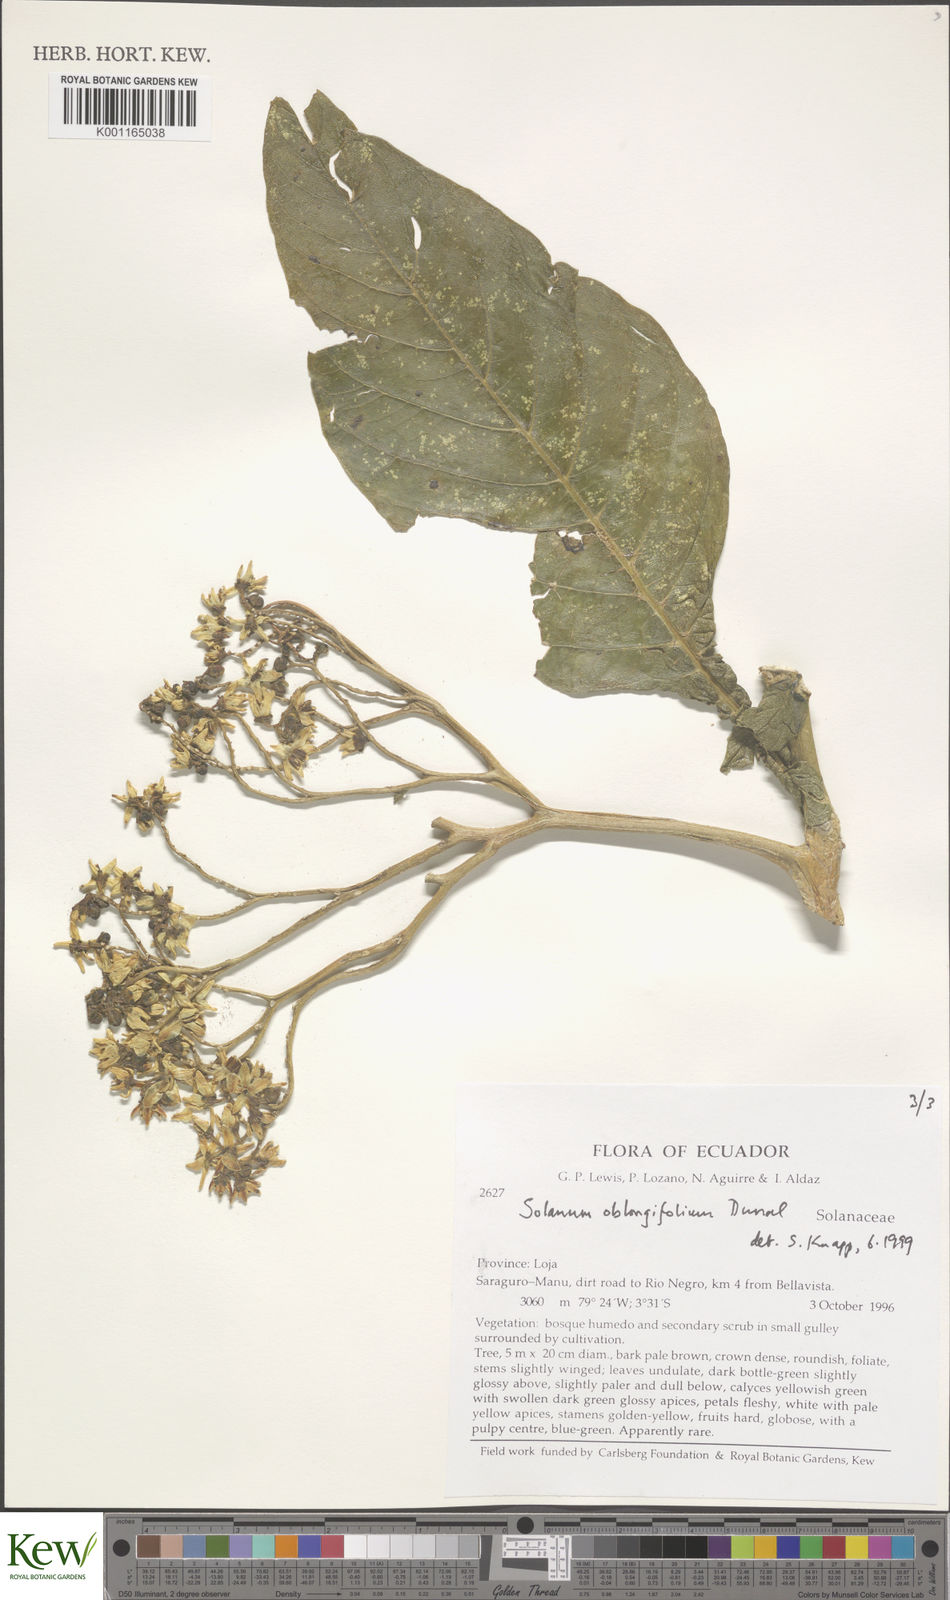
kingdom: Plantae
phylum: Tracheophyta
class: Magnoliopsida
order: Solanales
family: Solanaceae
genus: Solanum
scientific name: Solanum oblongifolium
